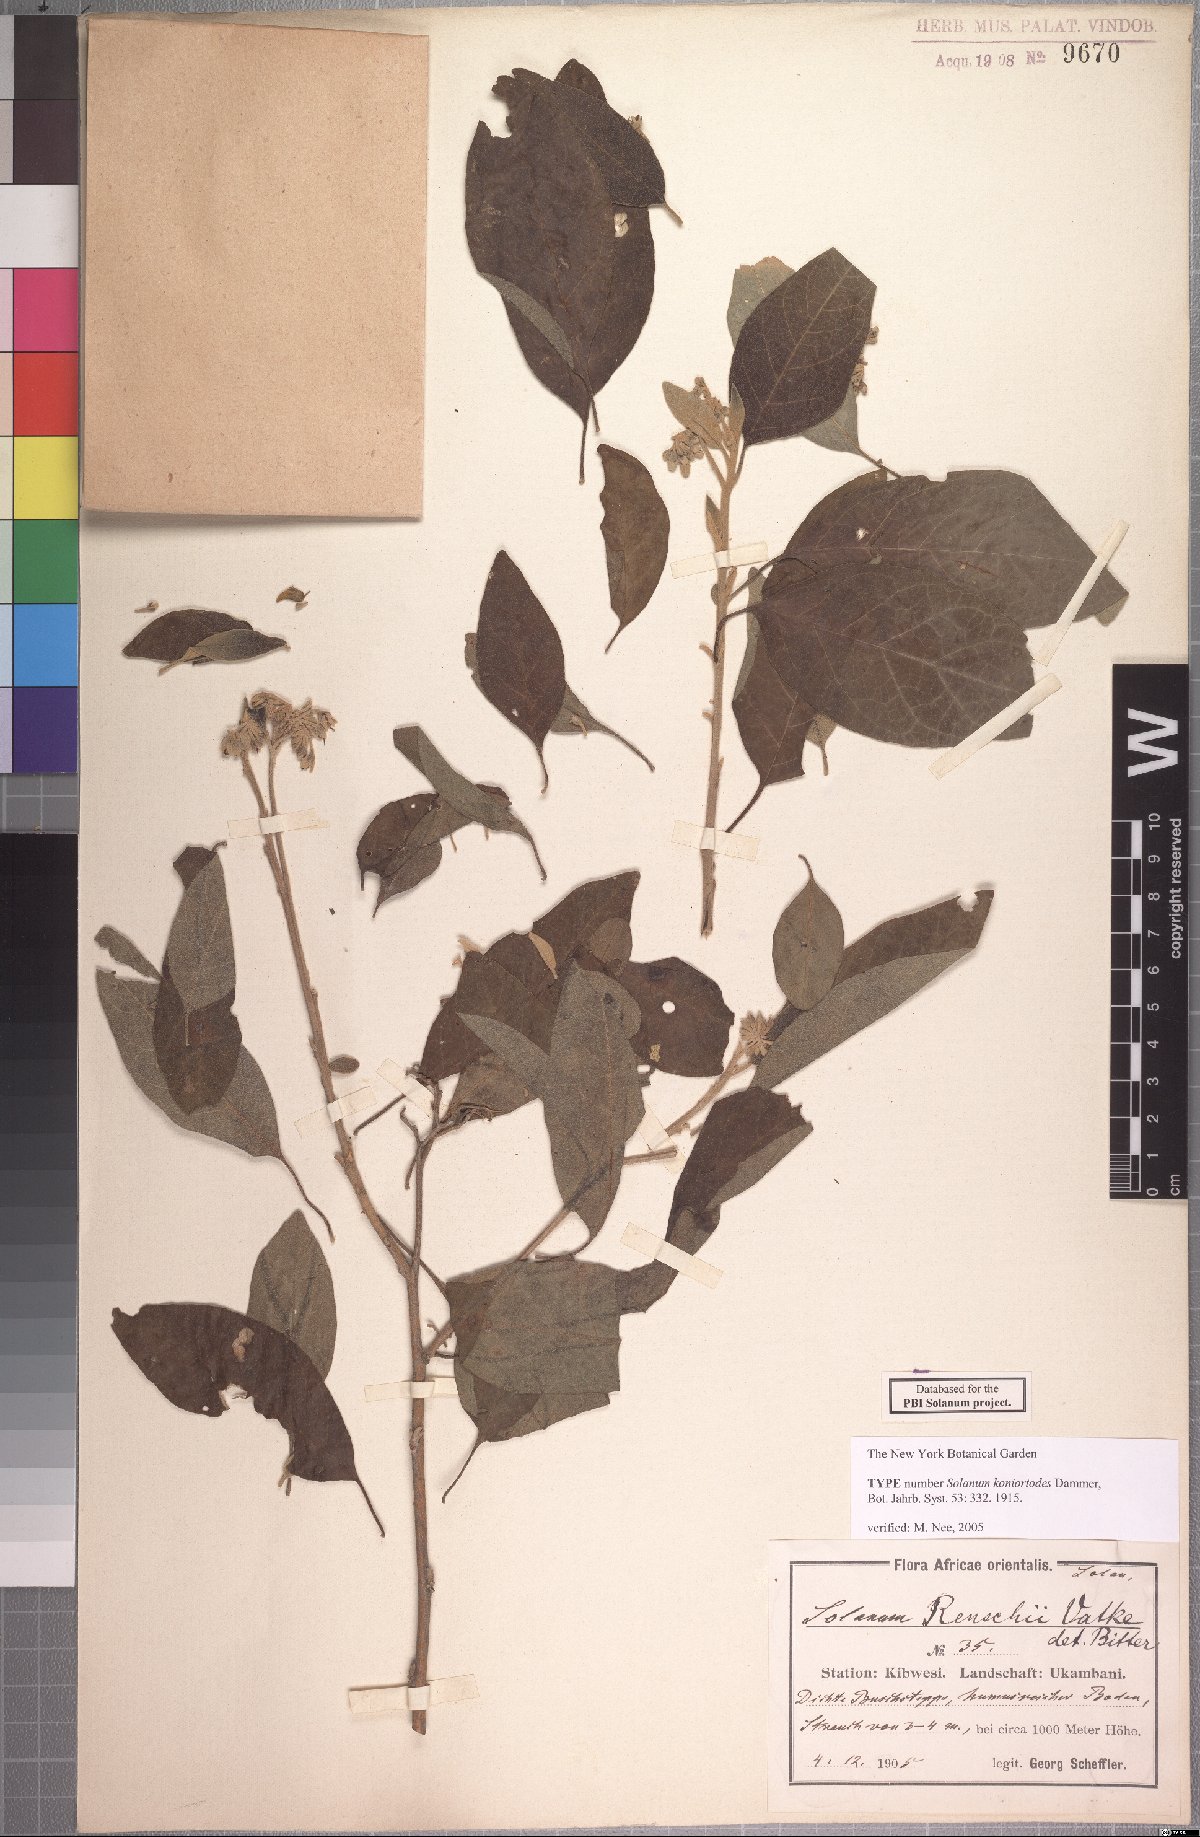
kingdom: Plantae
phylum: Tracheophyta
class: Magnoliopsida
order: Solanales
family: Solanaceae
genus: Solanum
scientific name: Solanum tettense
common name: Mozambique bitter apple
